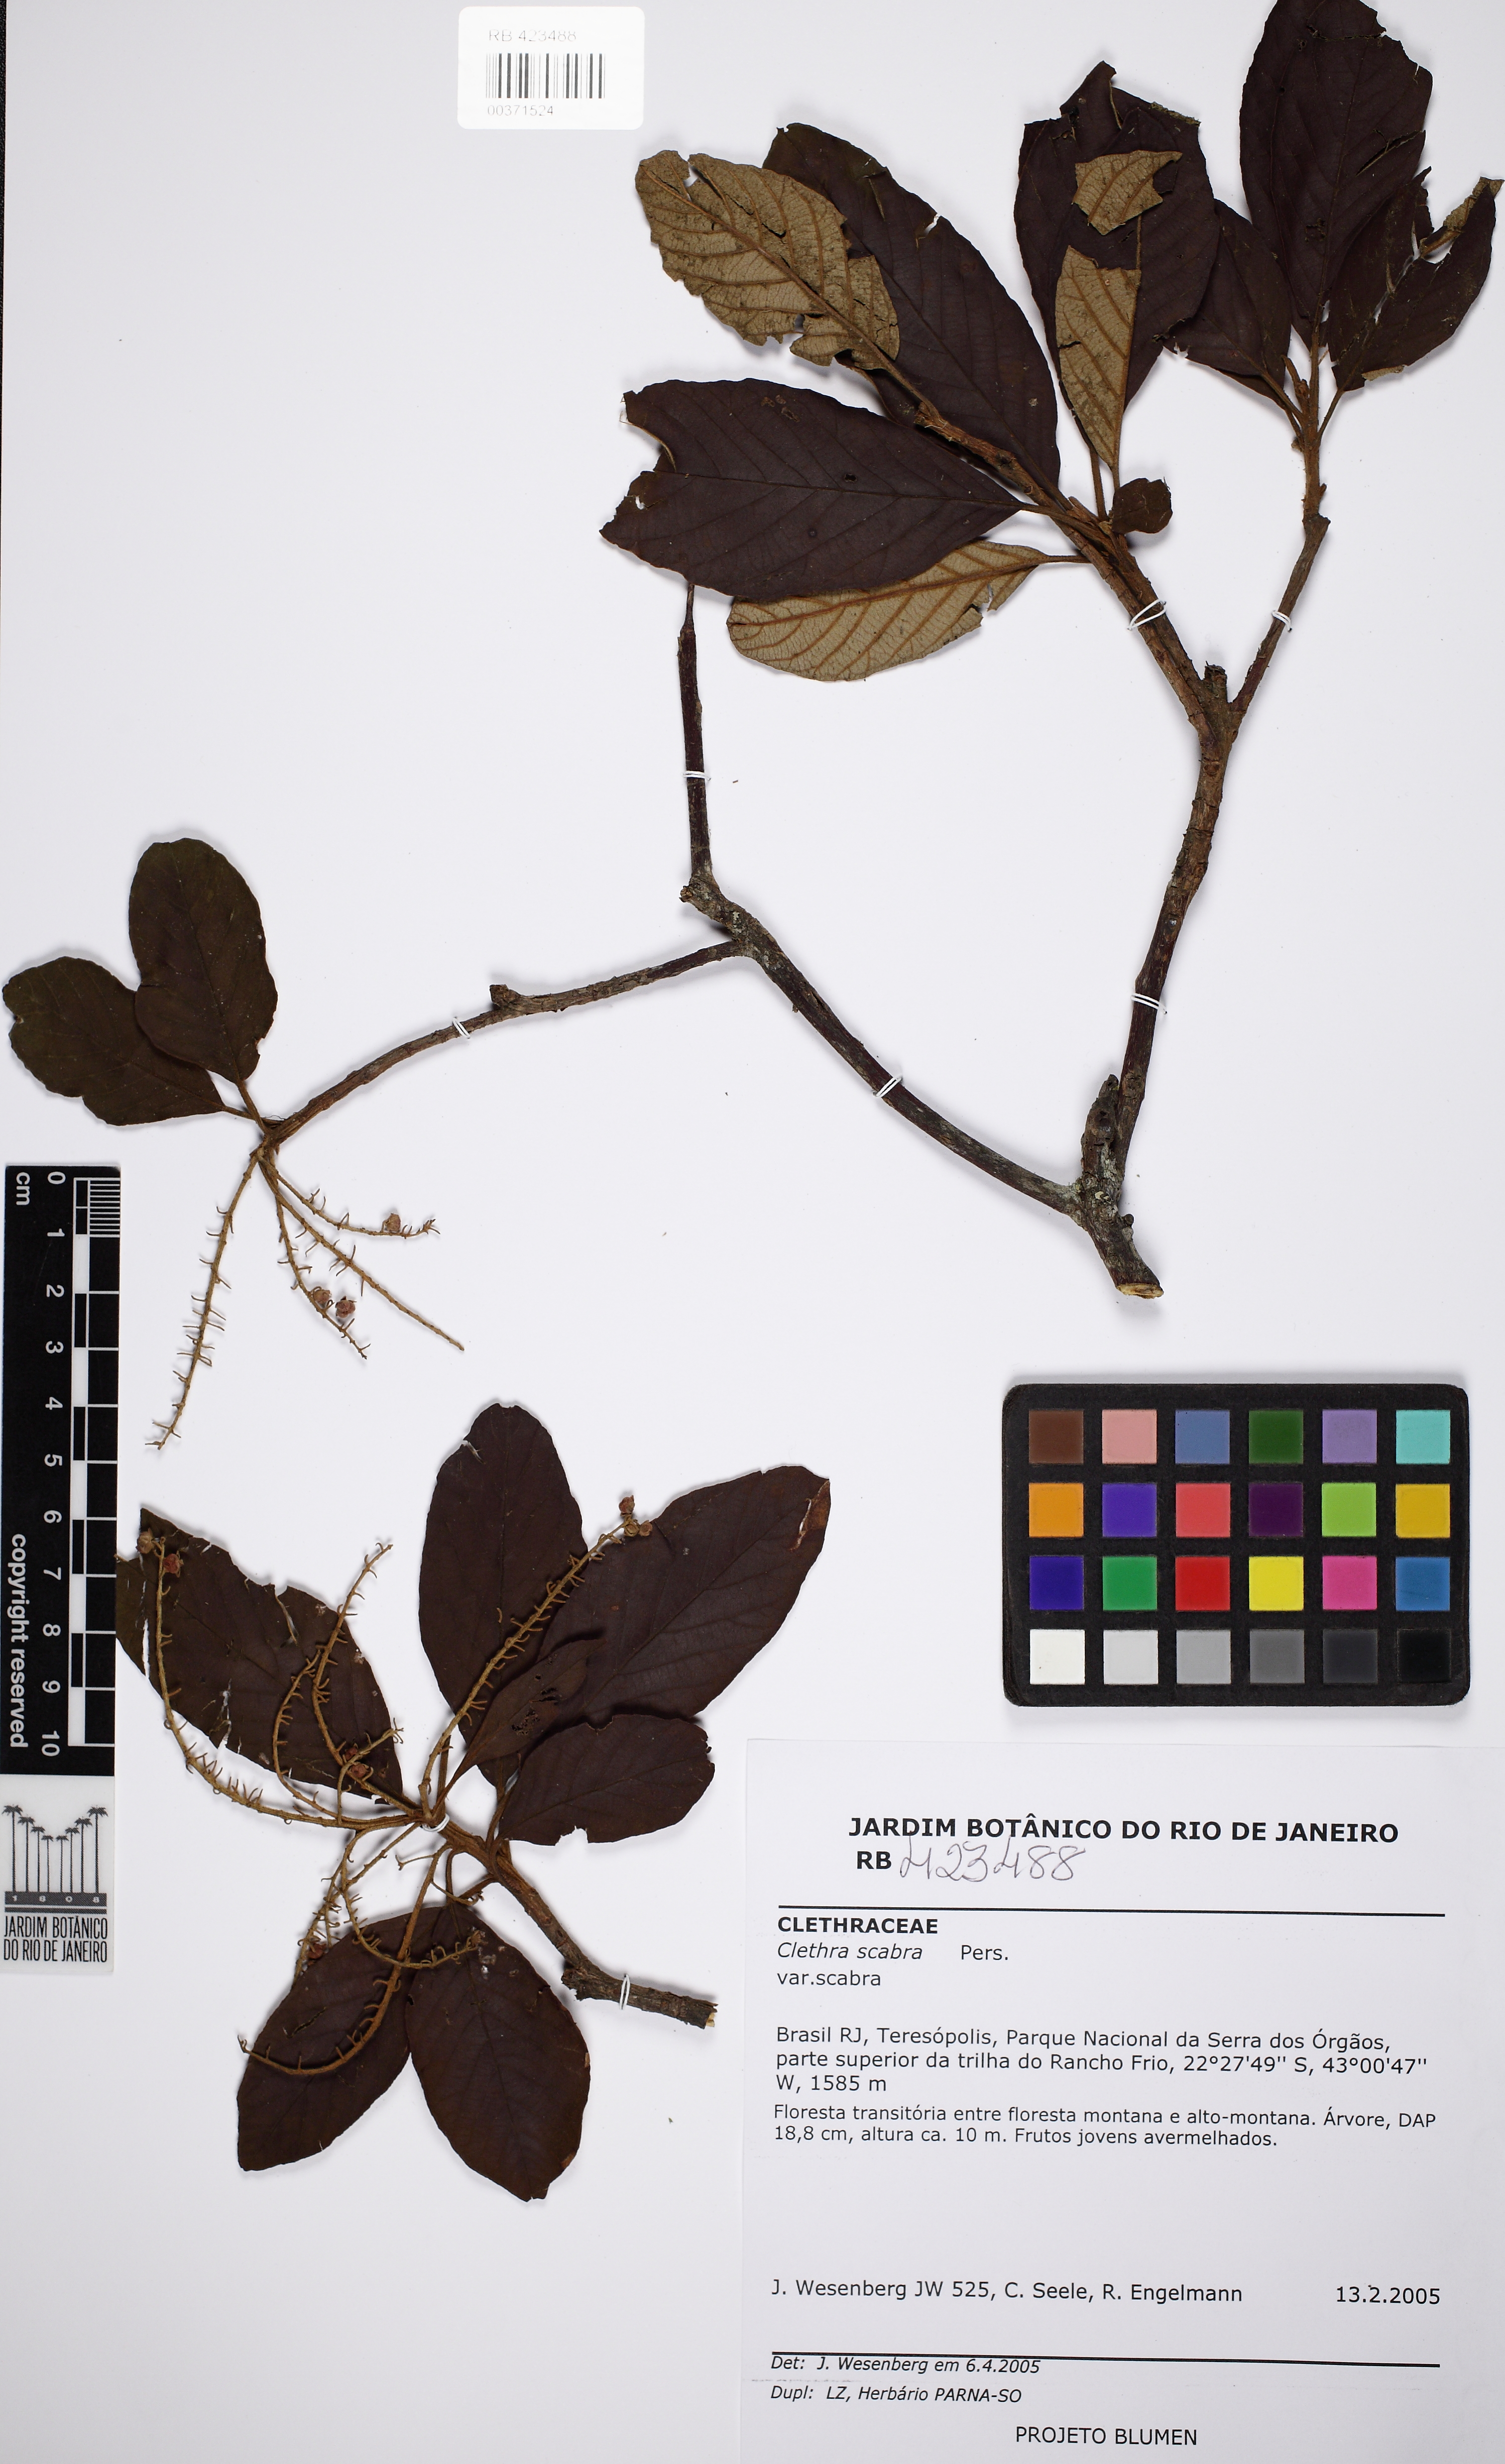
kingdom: Plantae
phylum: Tracheophyta
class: Magnoliopsida
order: Ericales
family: Clethraceae
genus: Clethra
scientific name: Clethra scabra
